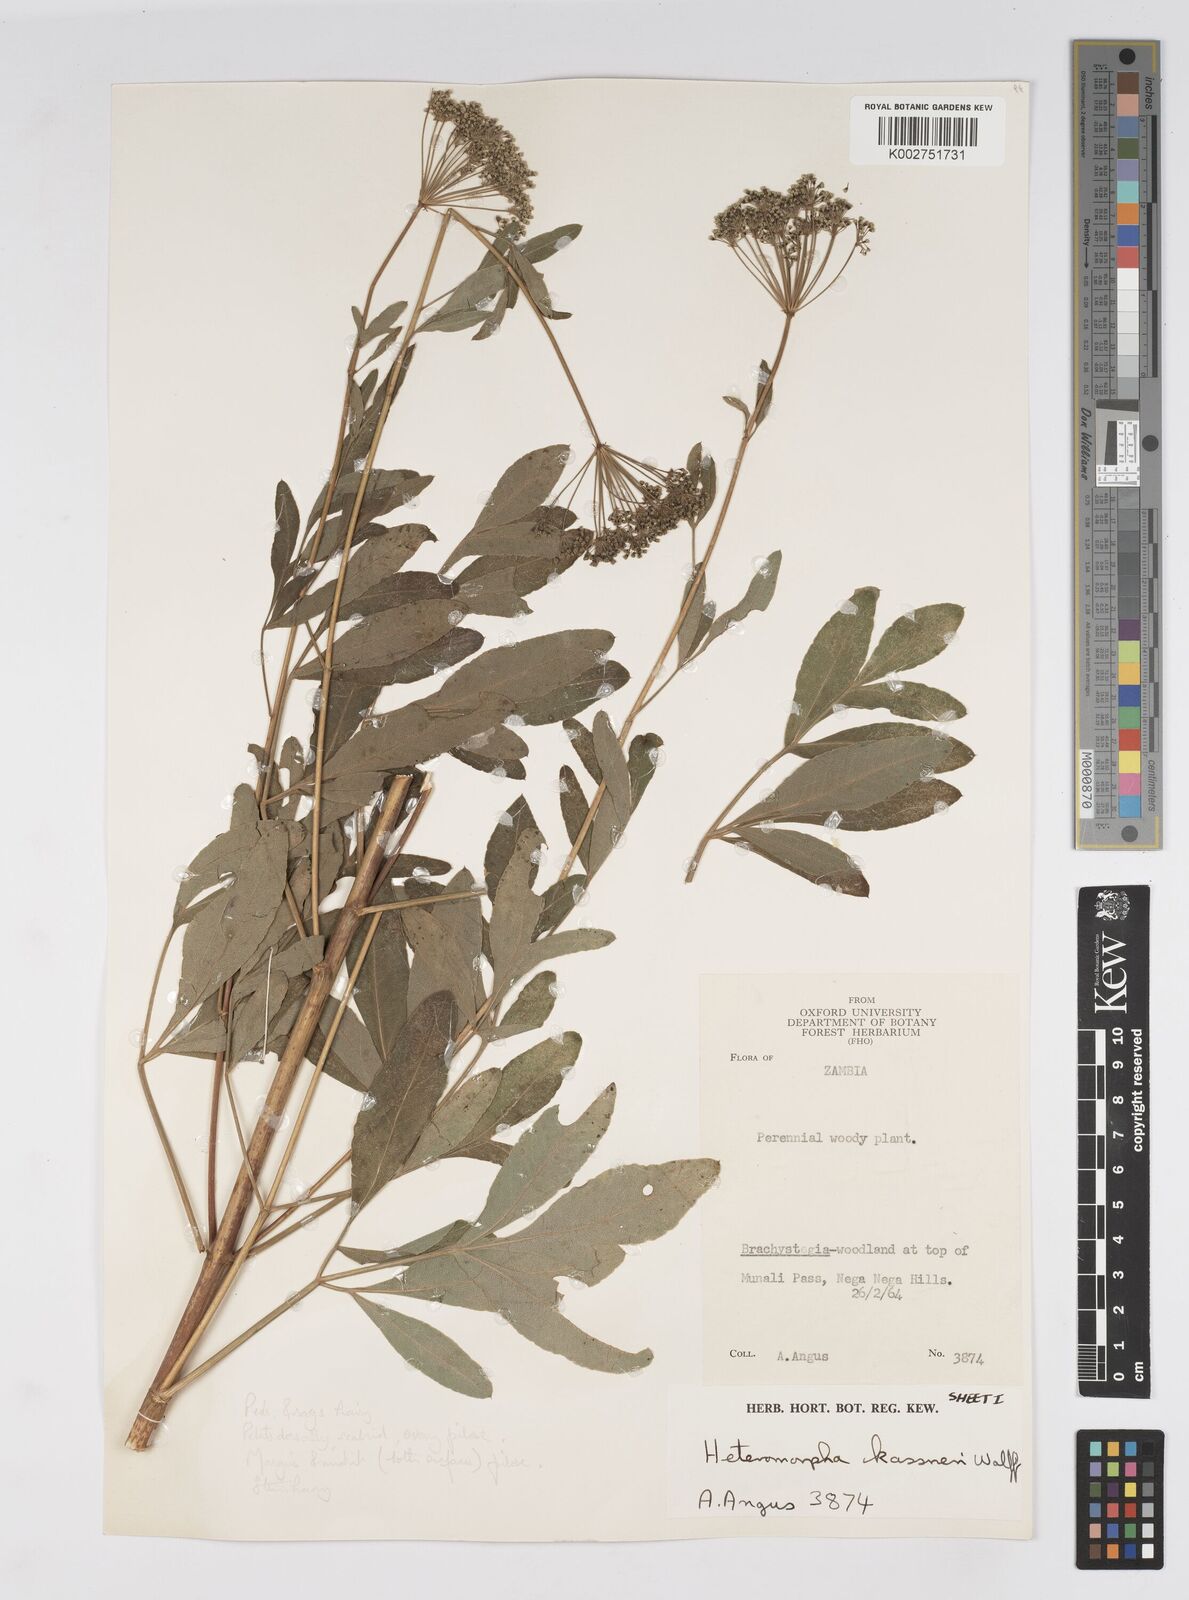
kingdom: Plantae
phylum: Tracheophyta
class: Magnoliopsida
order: Apiales
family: Apiaceae
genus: Heteromorpha
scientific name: Heteromorpha involucrata
